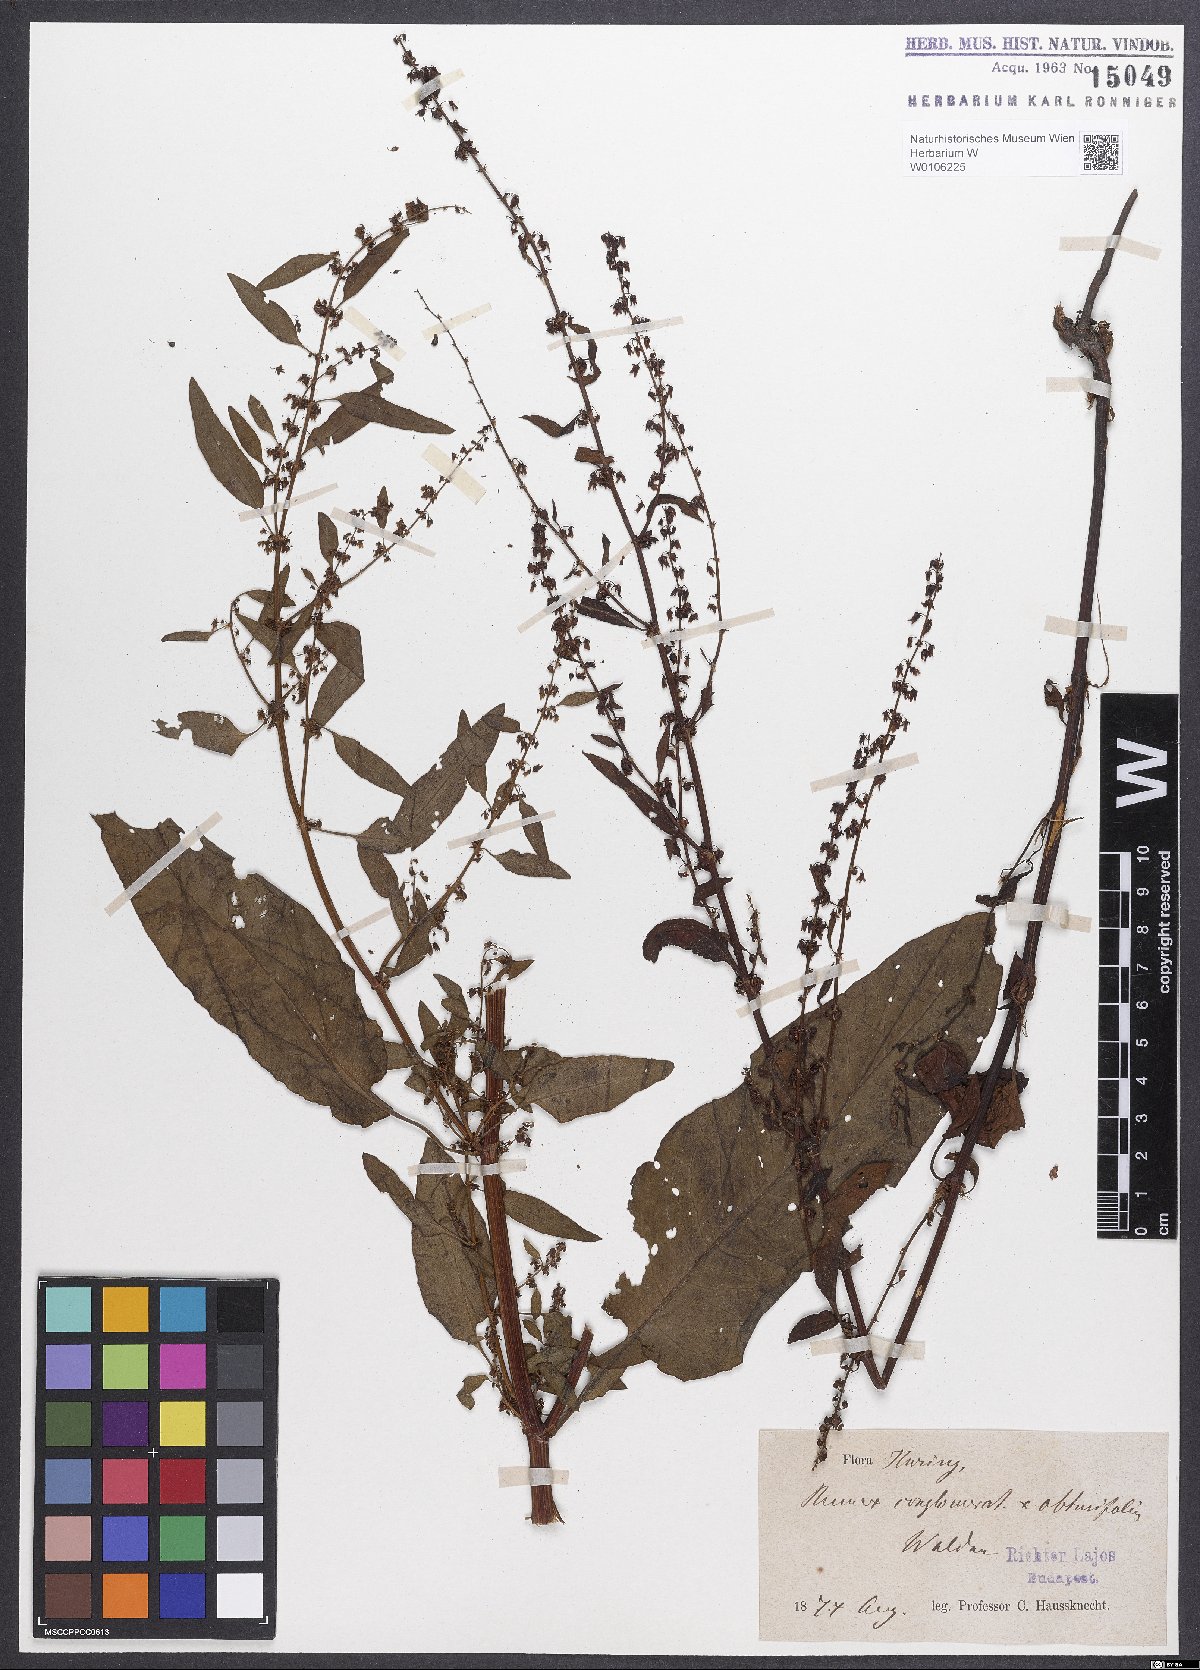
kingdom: Plantae
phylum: Tracheophyta
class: Magnoliopsida
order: Caryophyllales
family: Polygonaceae
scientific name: Polygonaceae
